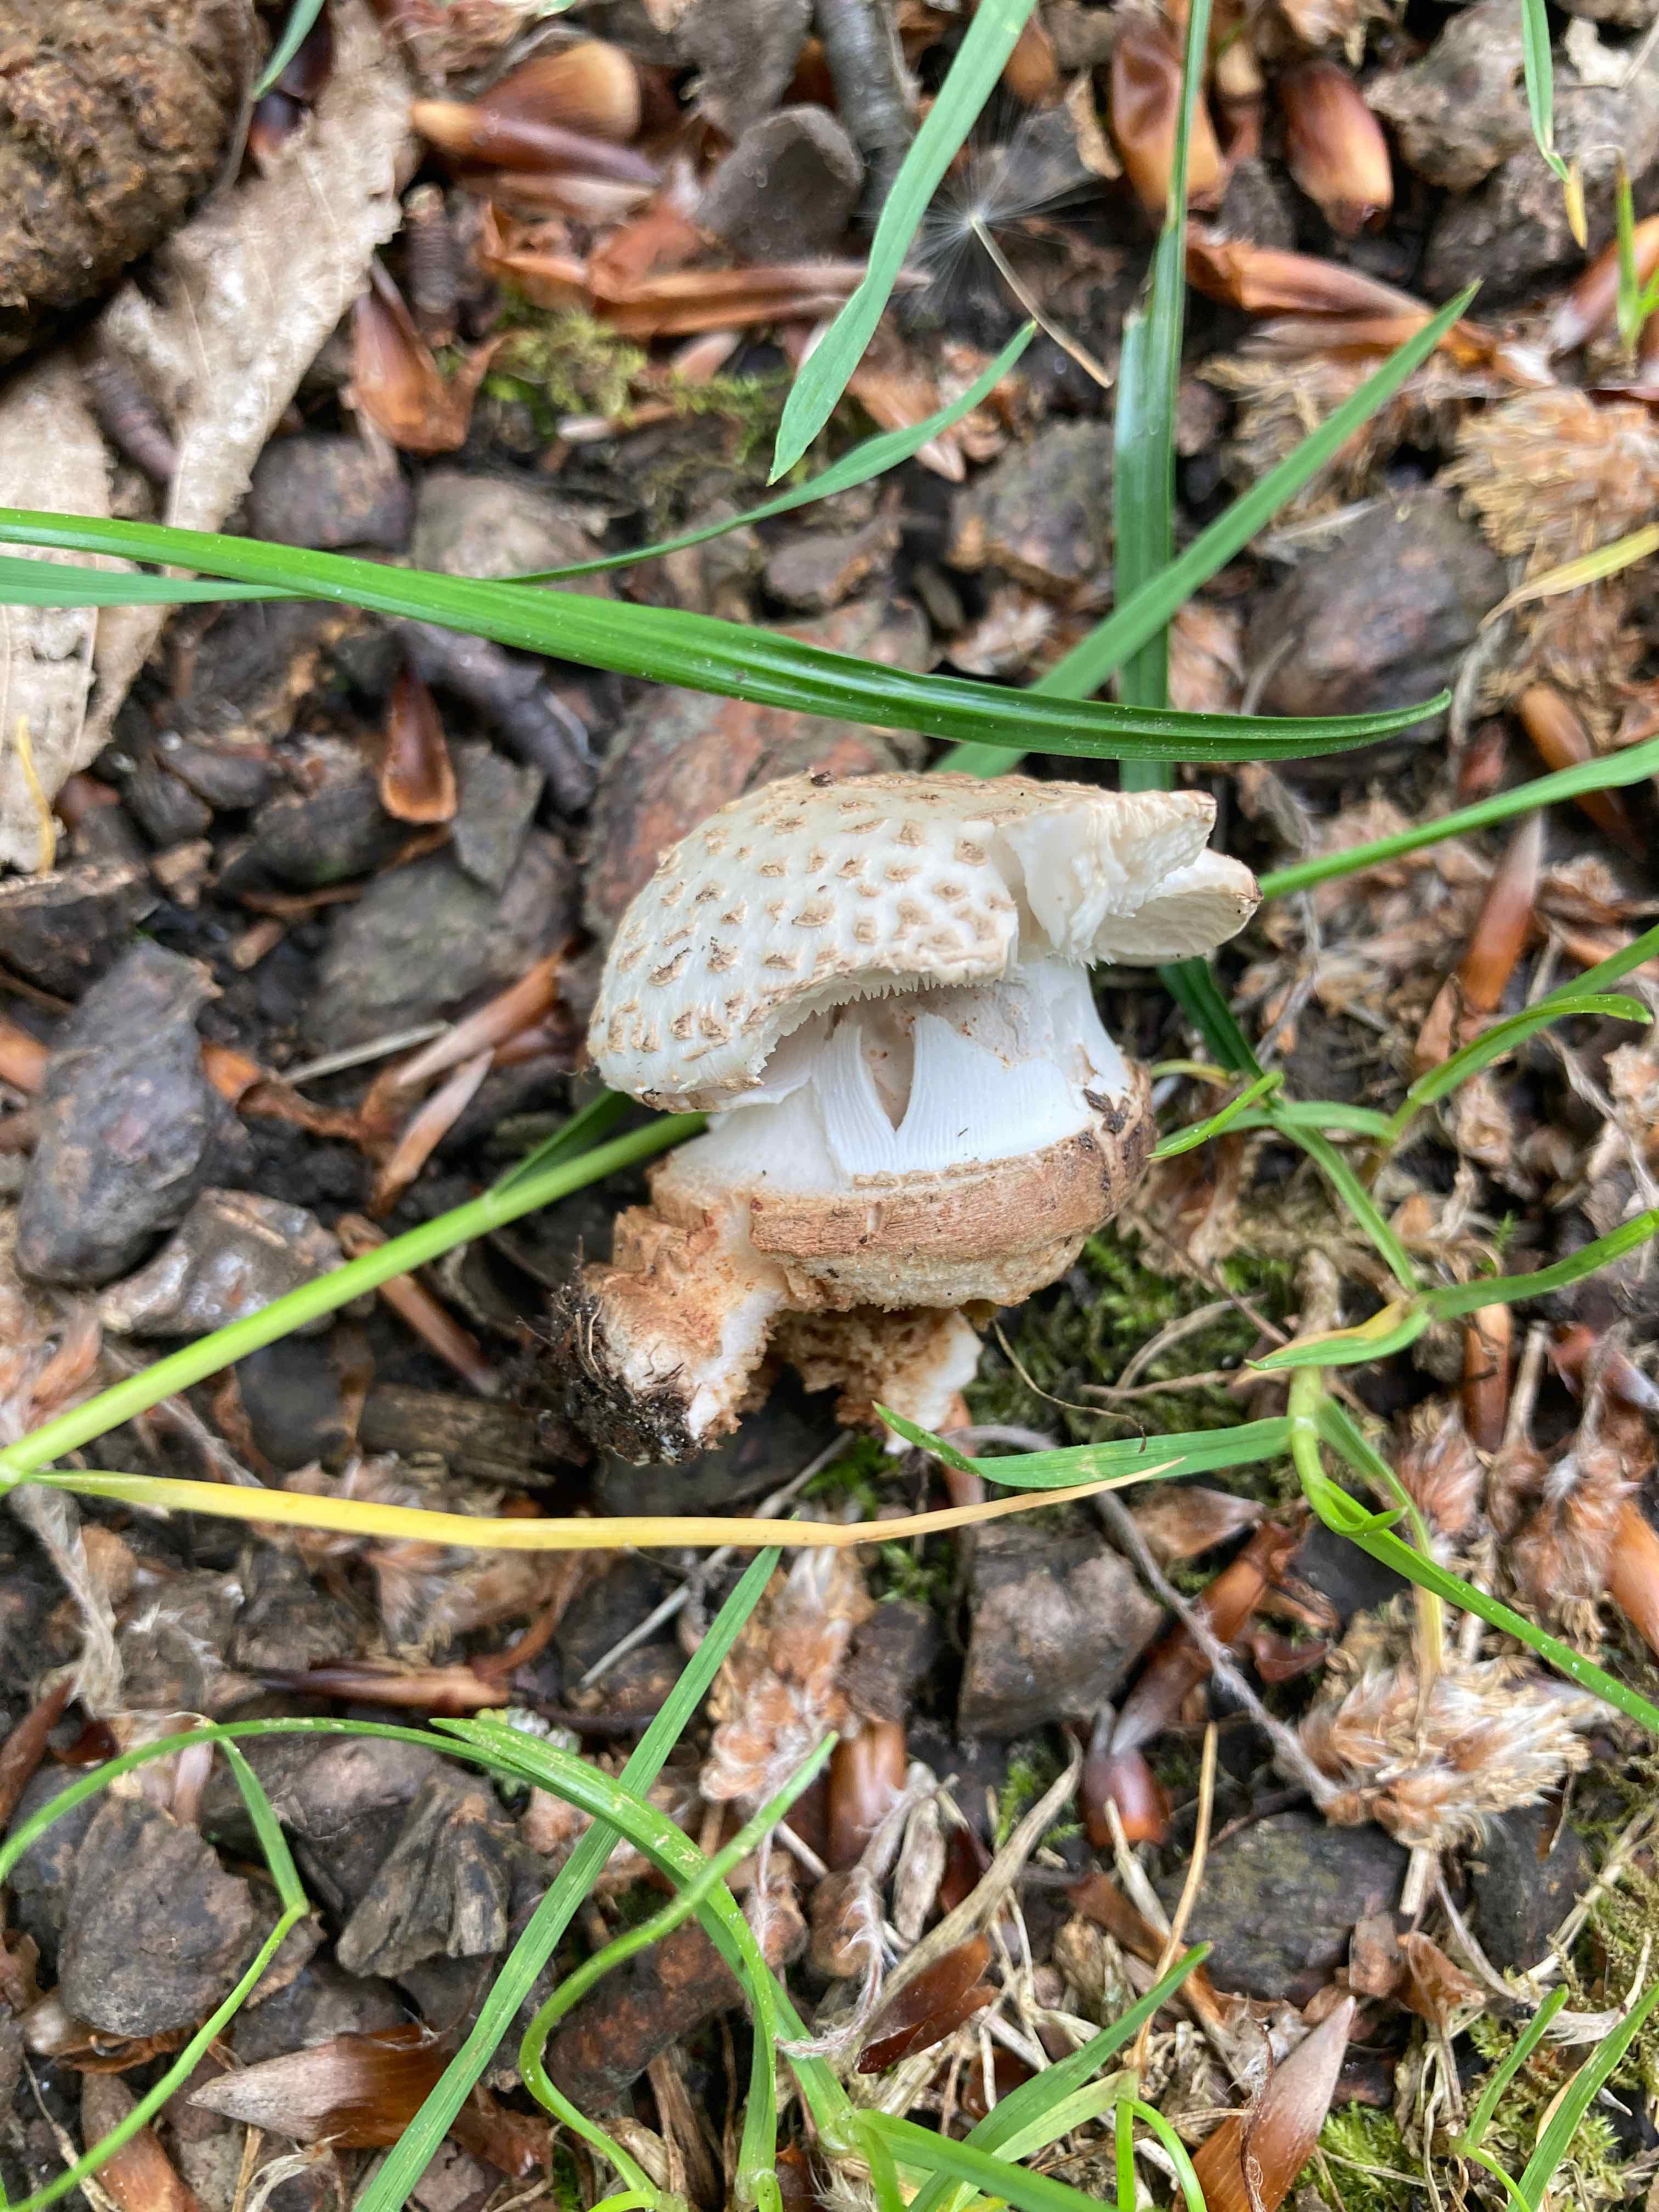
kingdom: Fungi
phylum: Basidiomycota
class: Agaricomycetes
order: Agaricales
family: Amanitaceae
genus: Amanita
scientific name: Amanita rubescens
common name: rødmende fluesvamp
